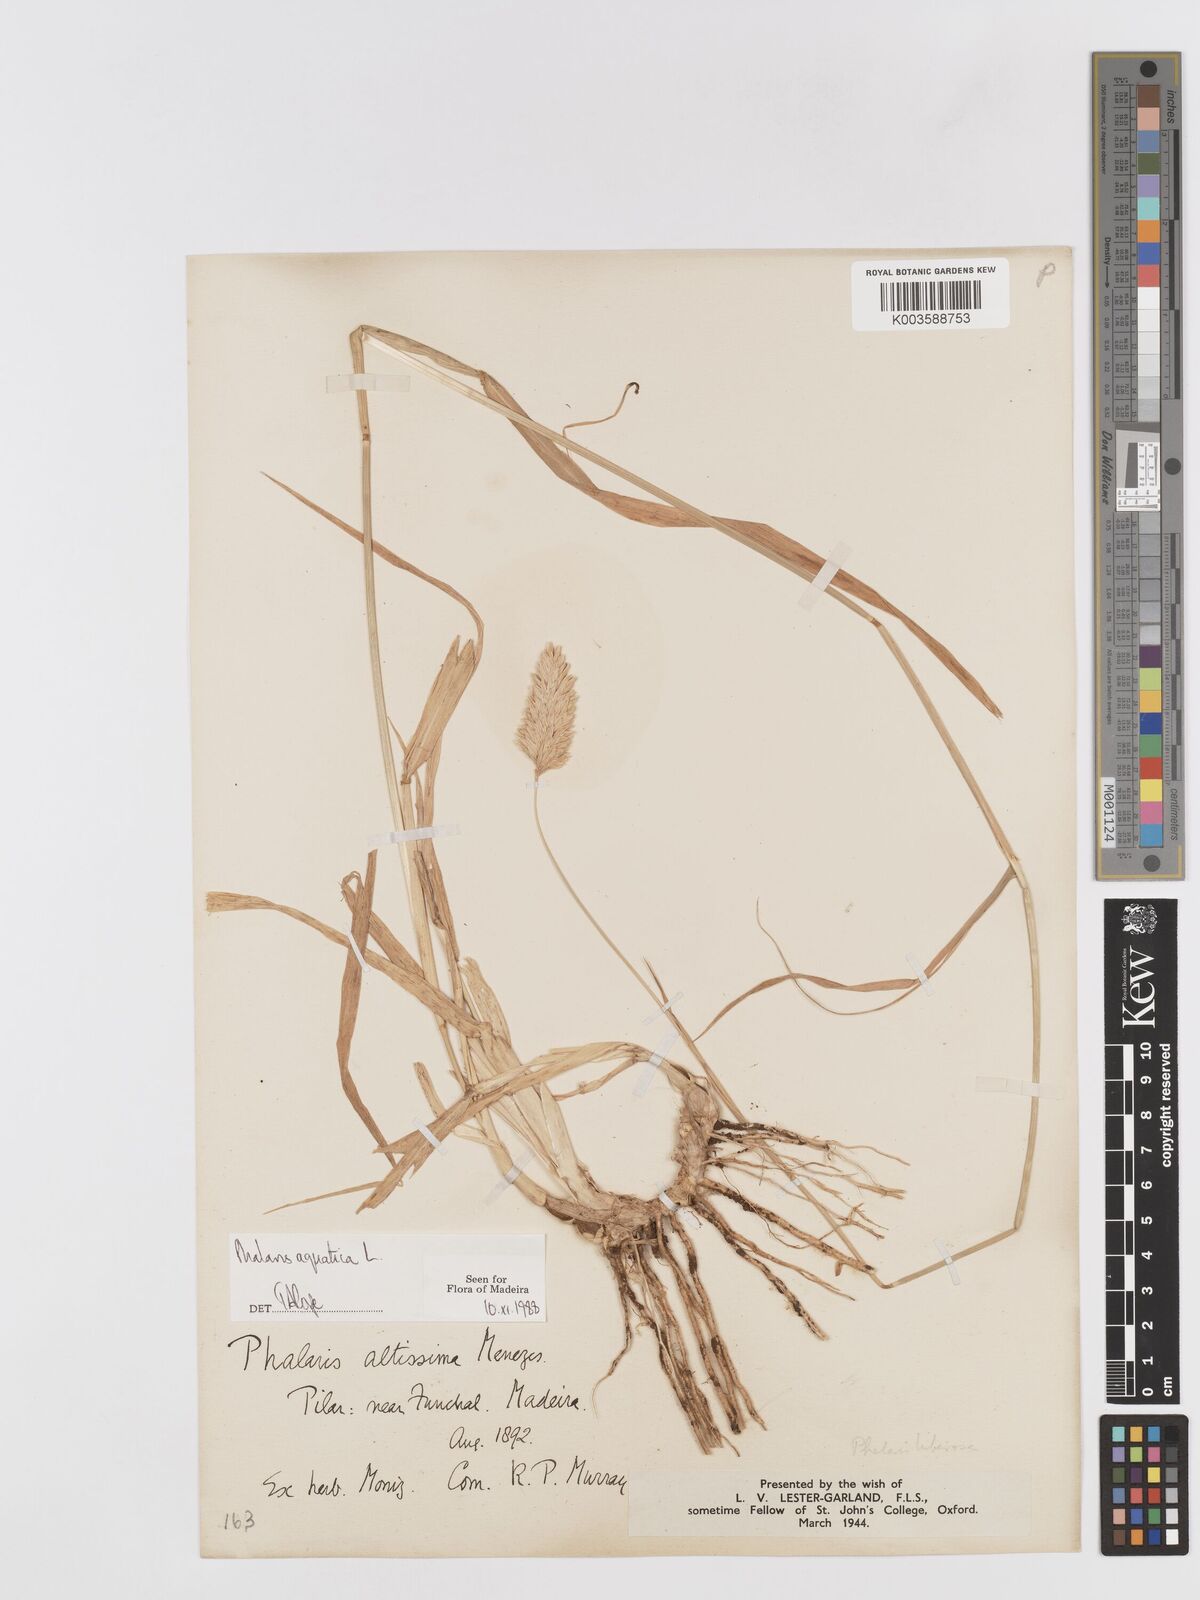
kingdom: Plantae
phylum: Tracheophyta
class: Liliopsida
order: Poales
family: Poaceae
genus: Phalaris
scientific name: Phalaris aquatica
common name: Bulbous canary-grass
